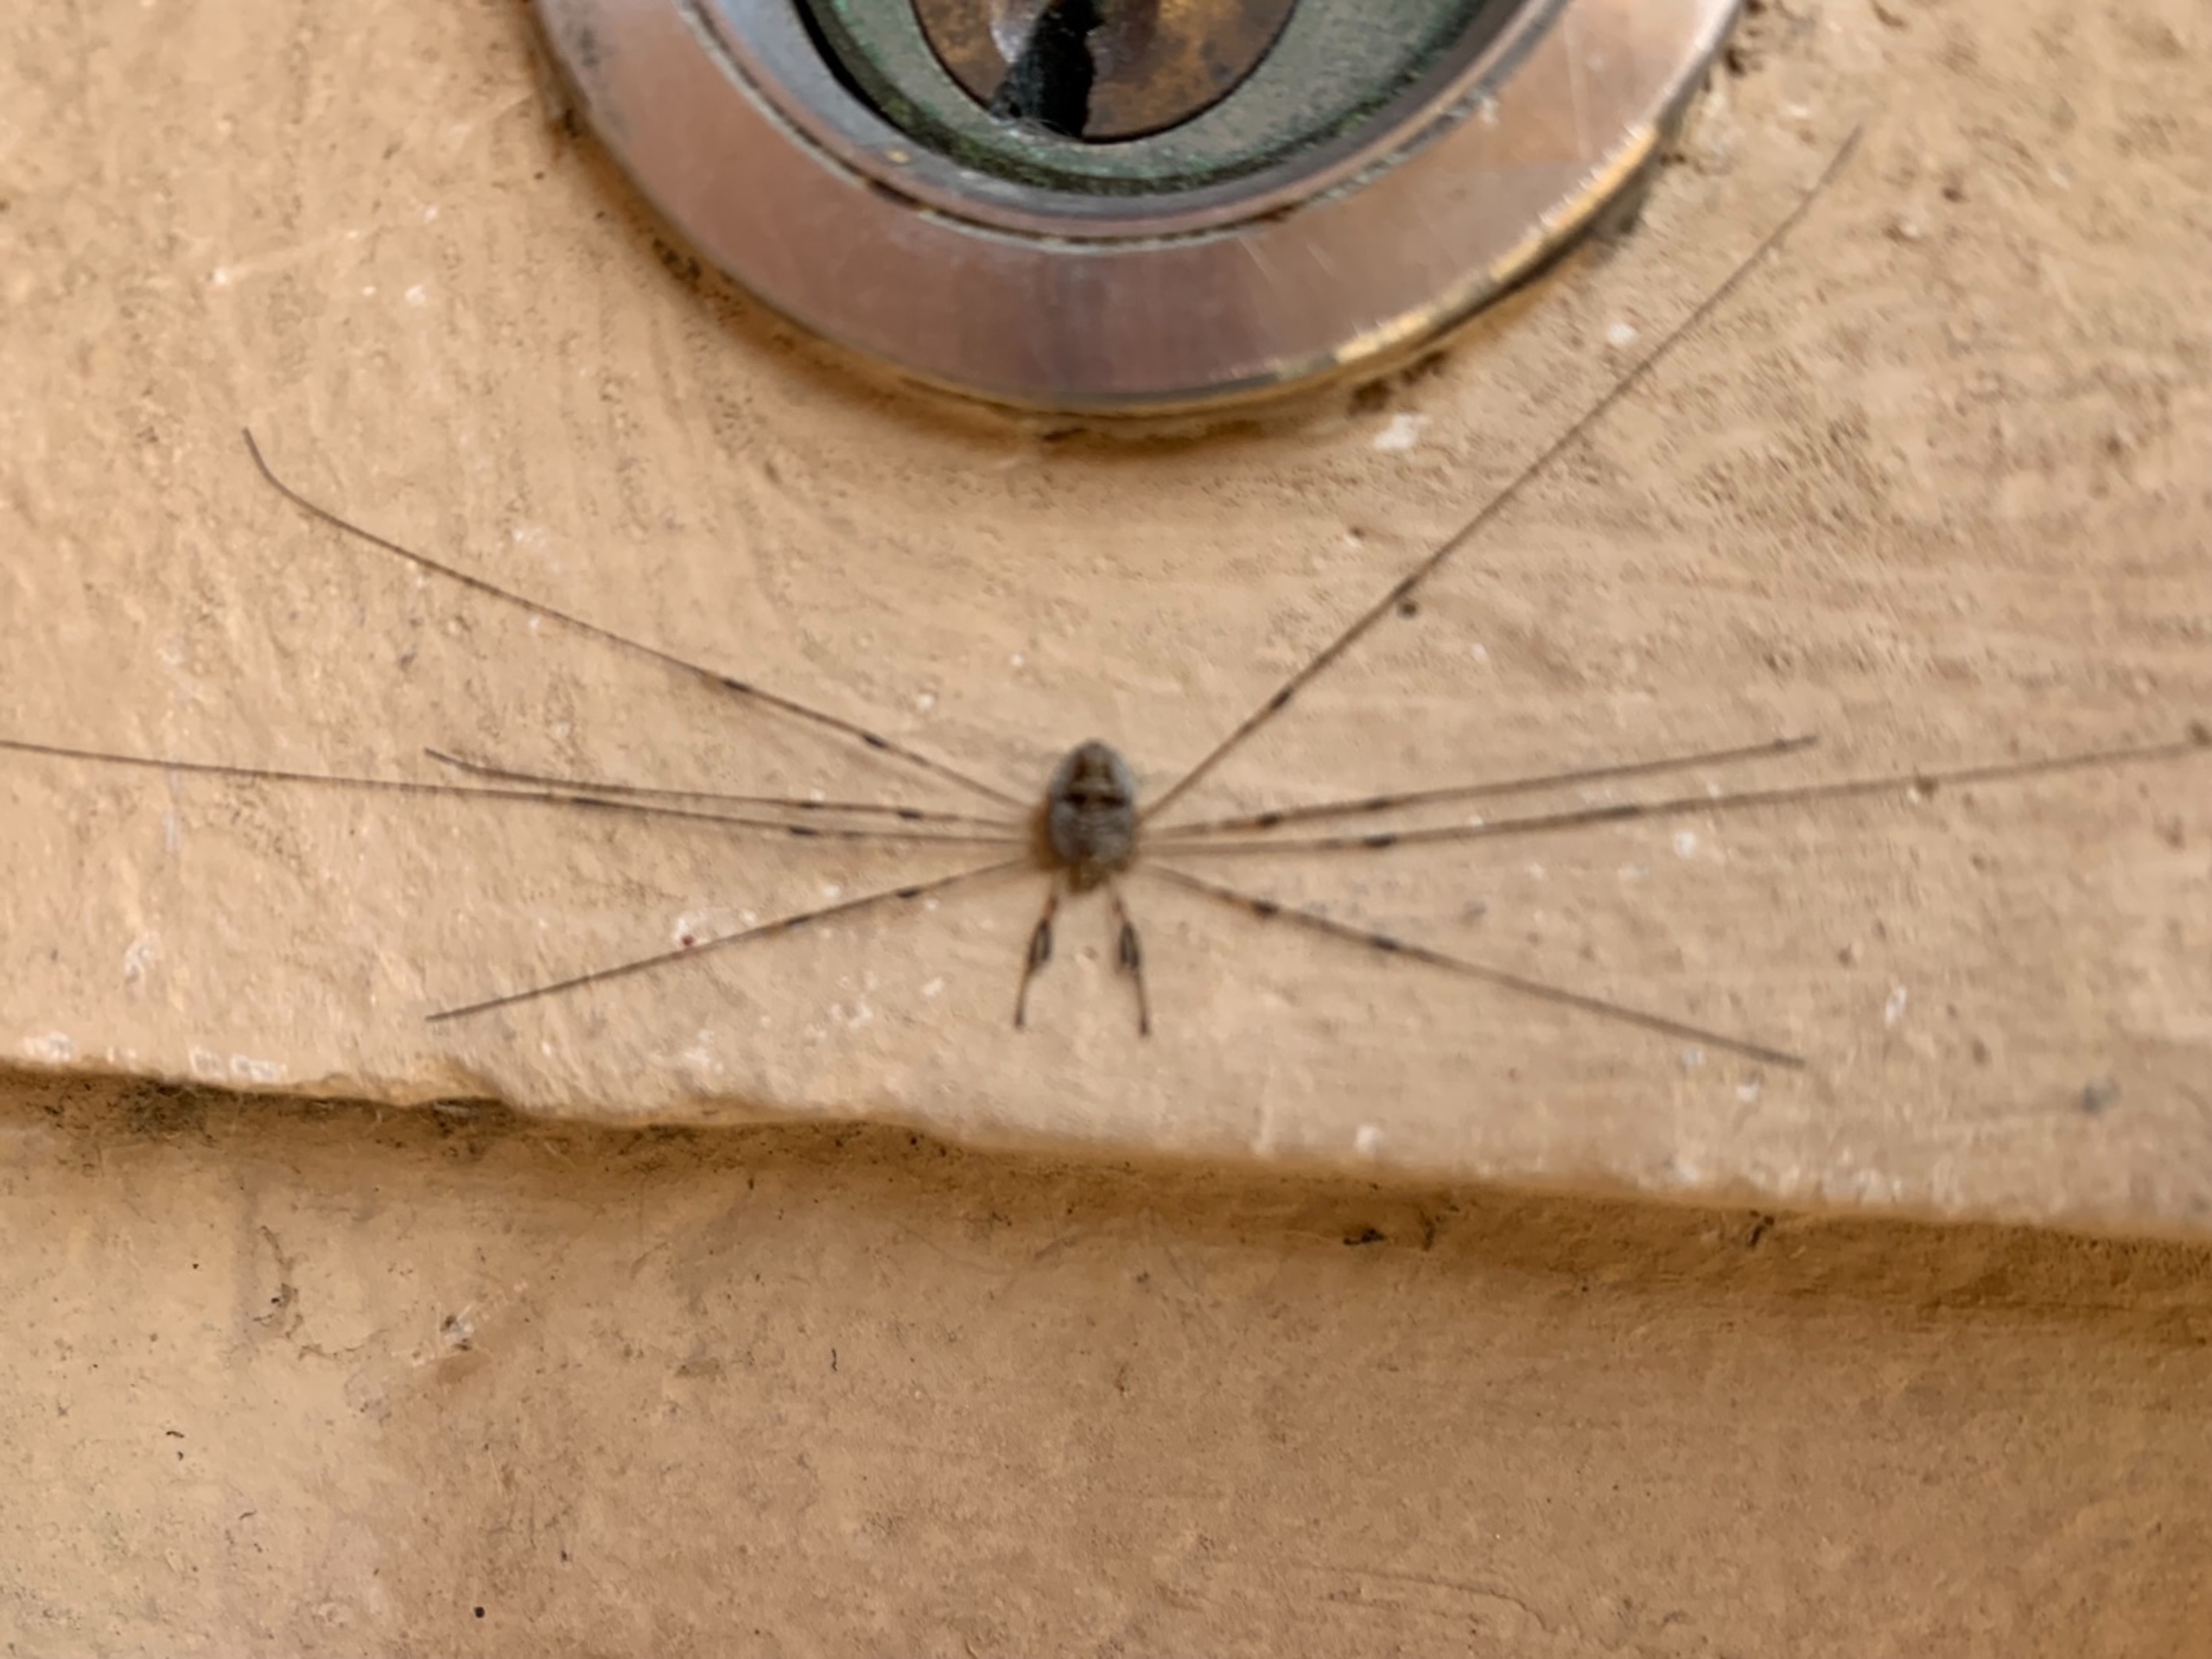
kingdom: Animalia
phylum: Arthropoda
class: Arachnida
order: Opiliones
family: Phalangiidae
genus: Dicranopalpus
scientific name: Dicranopalpus ramosus
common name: Gaffelmejer
